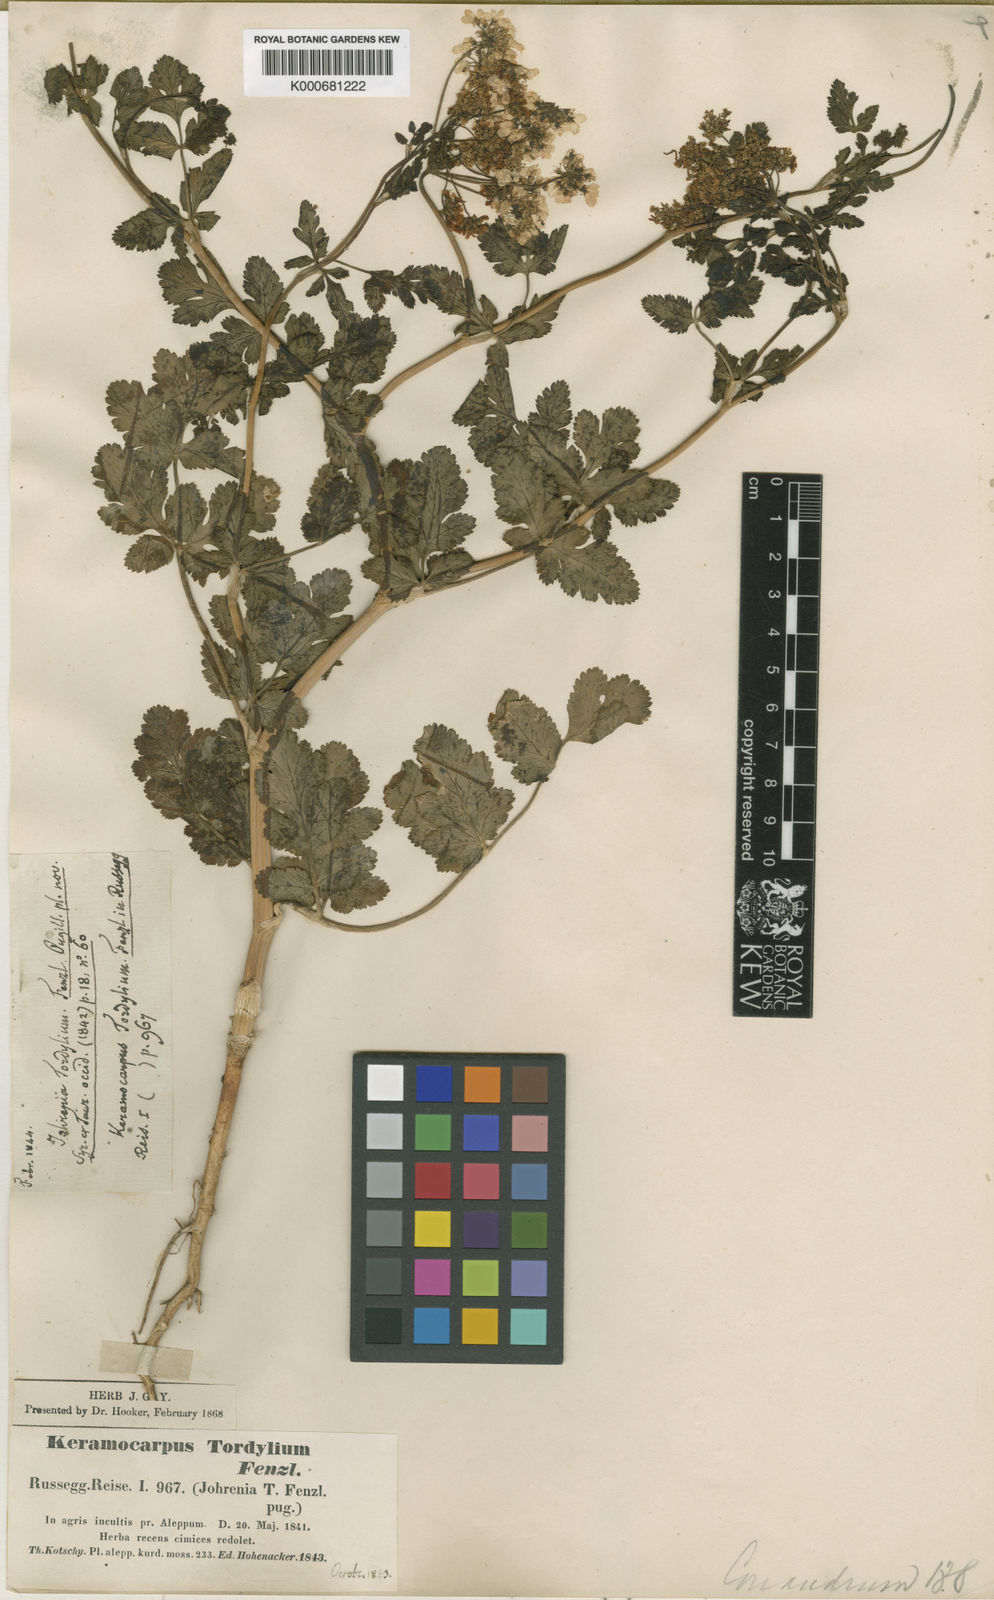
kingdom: Plantae
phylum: Tracheophyta
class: Magnoliopsida
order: Apiales
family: Apiaceae
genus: Coriandrum
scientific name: Coriandrum tordylium
